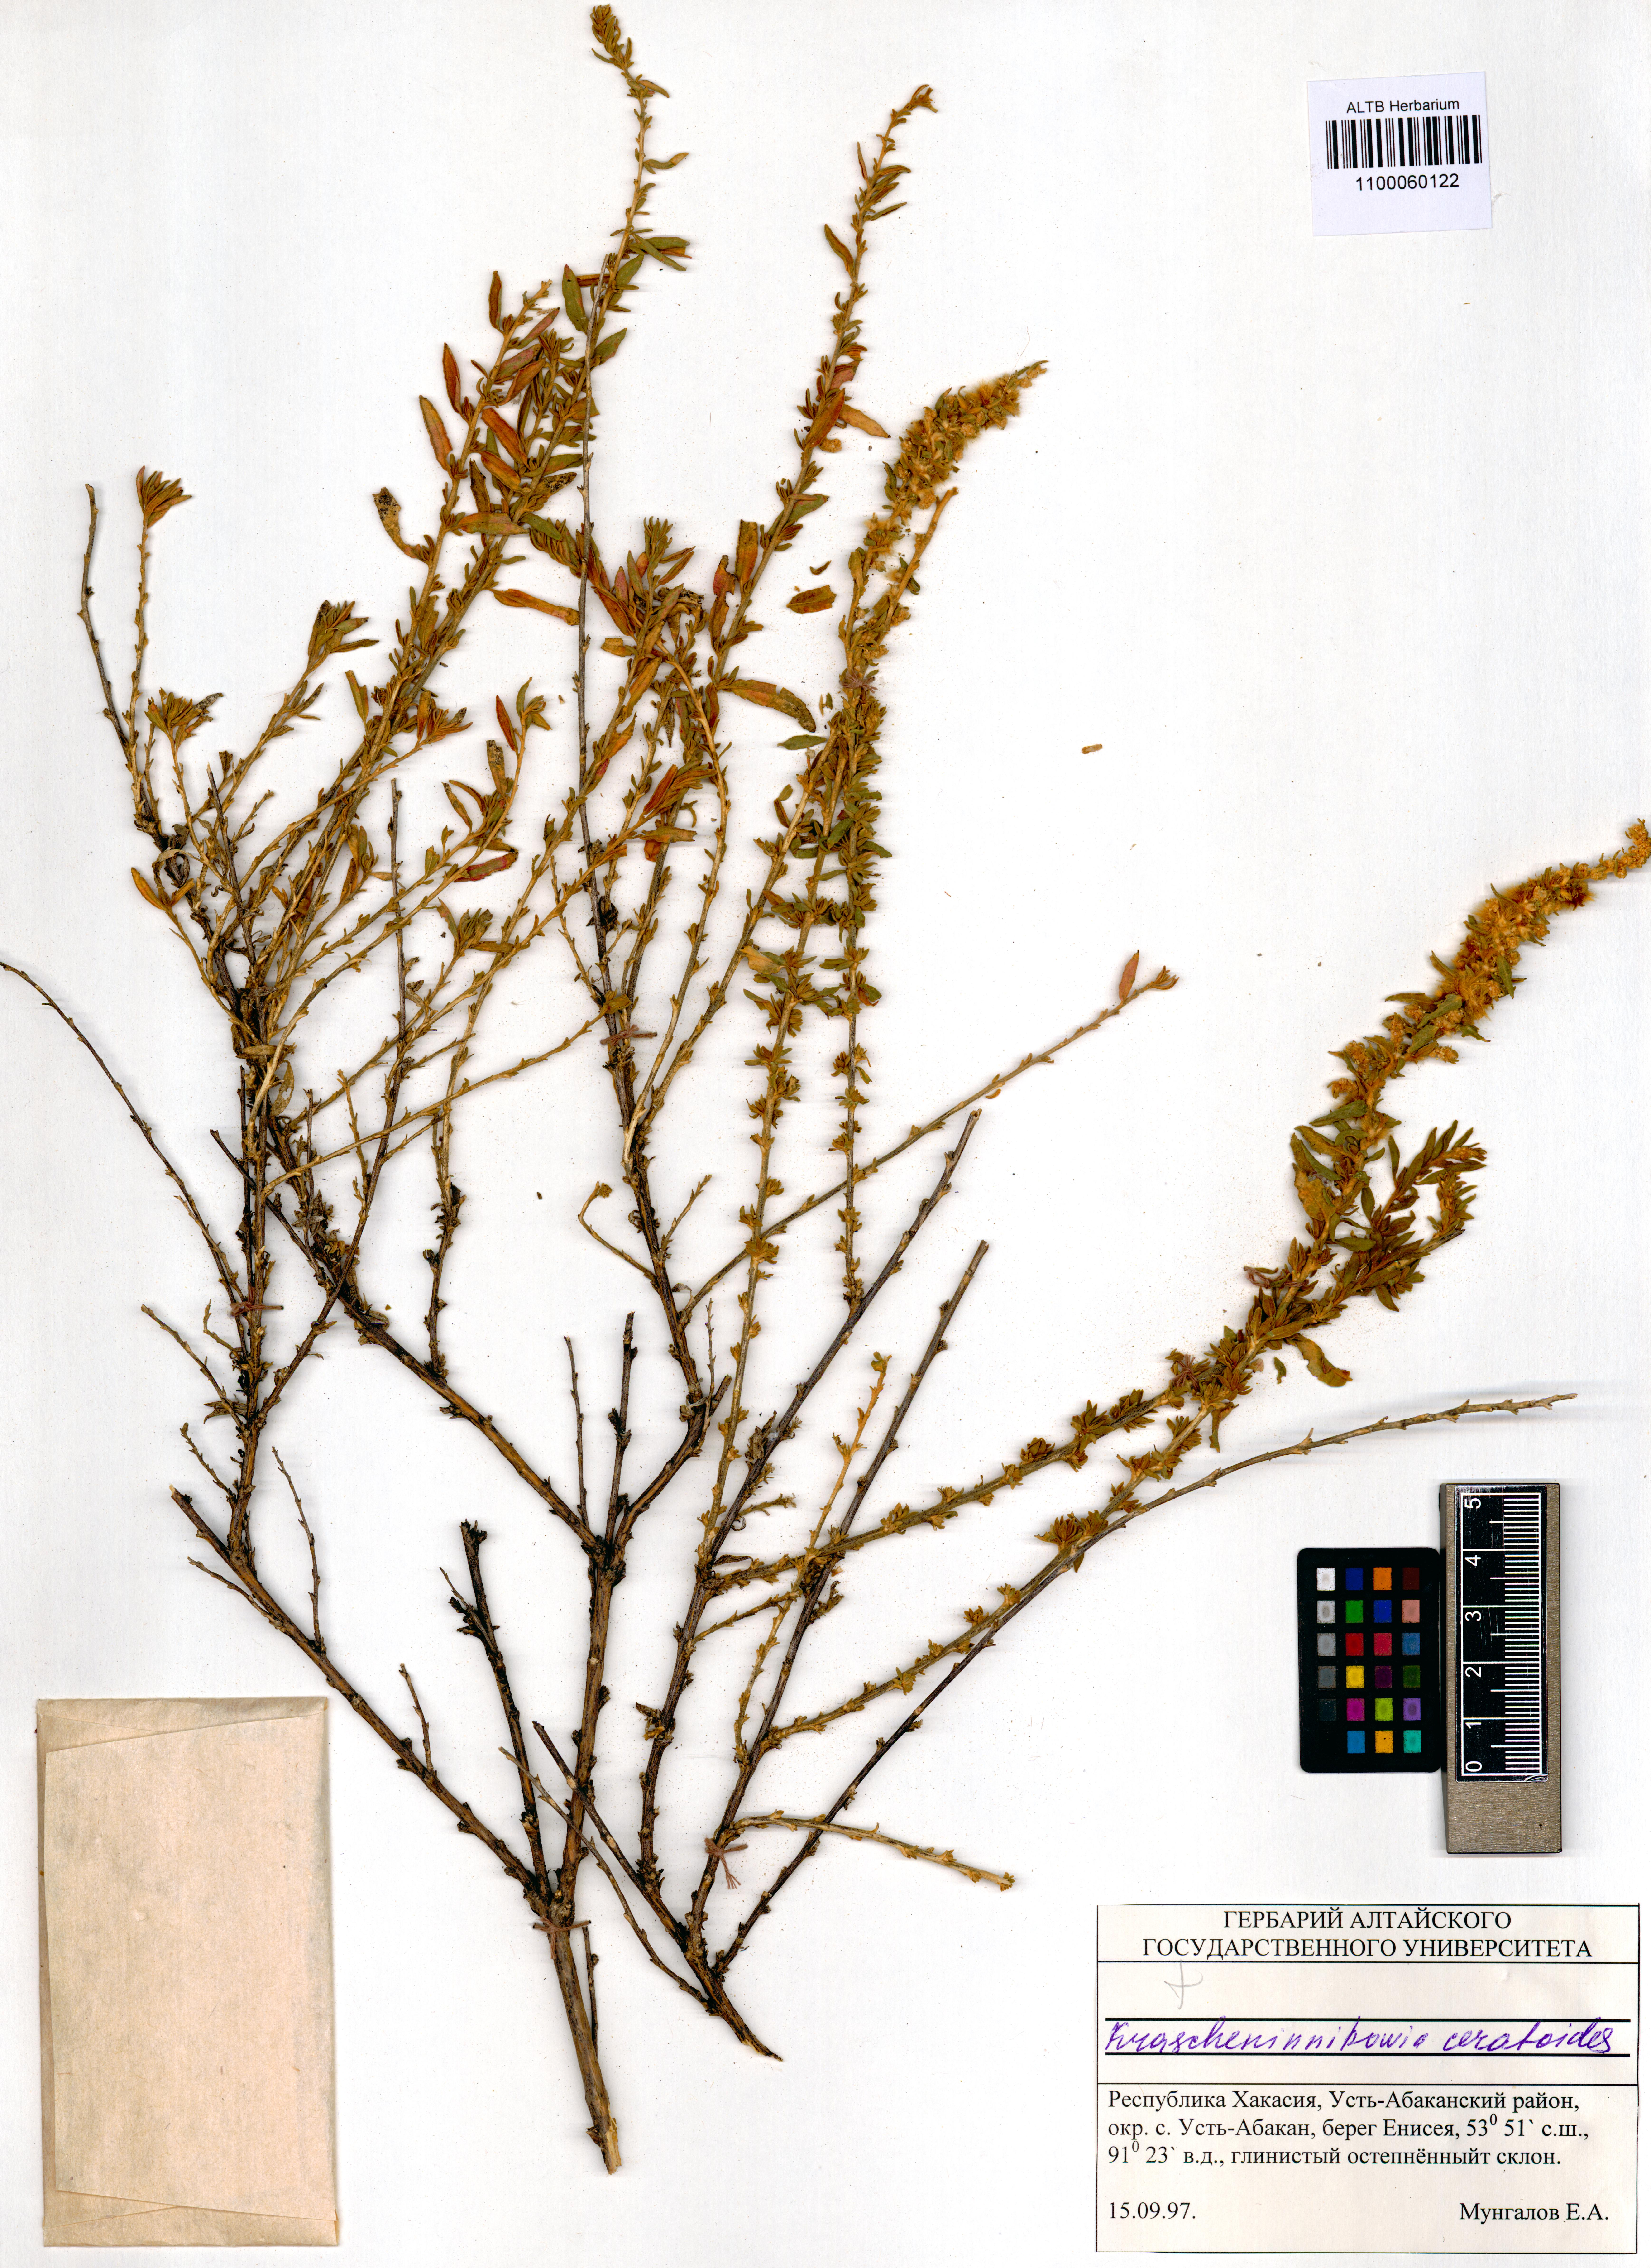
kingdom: Plantae
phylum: Tracheophyta
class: Magnoliopsida
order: Caryophyllales
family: Amaranthaceae
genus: Krascheninnikovia
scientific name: Krascheninnikovia ceratoides
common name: Pamirian winterfat
